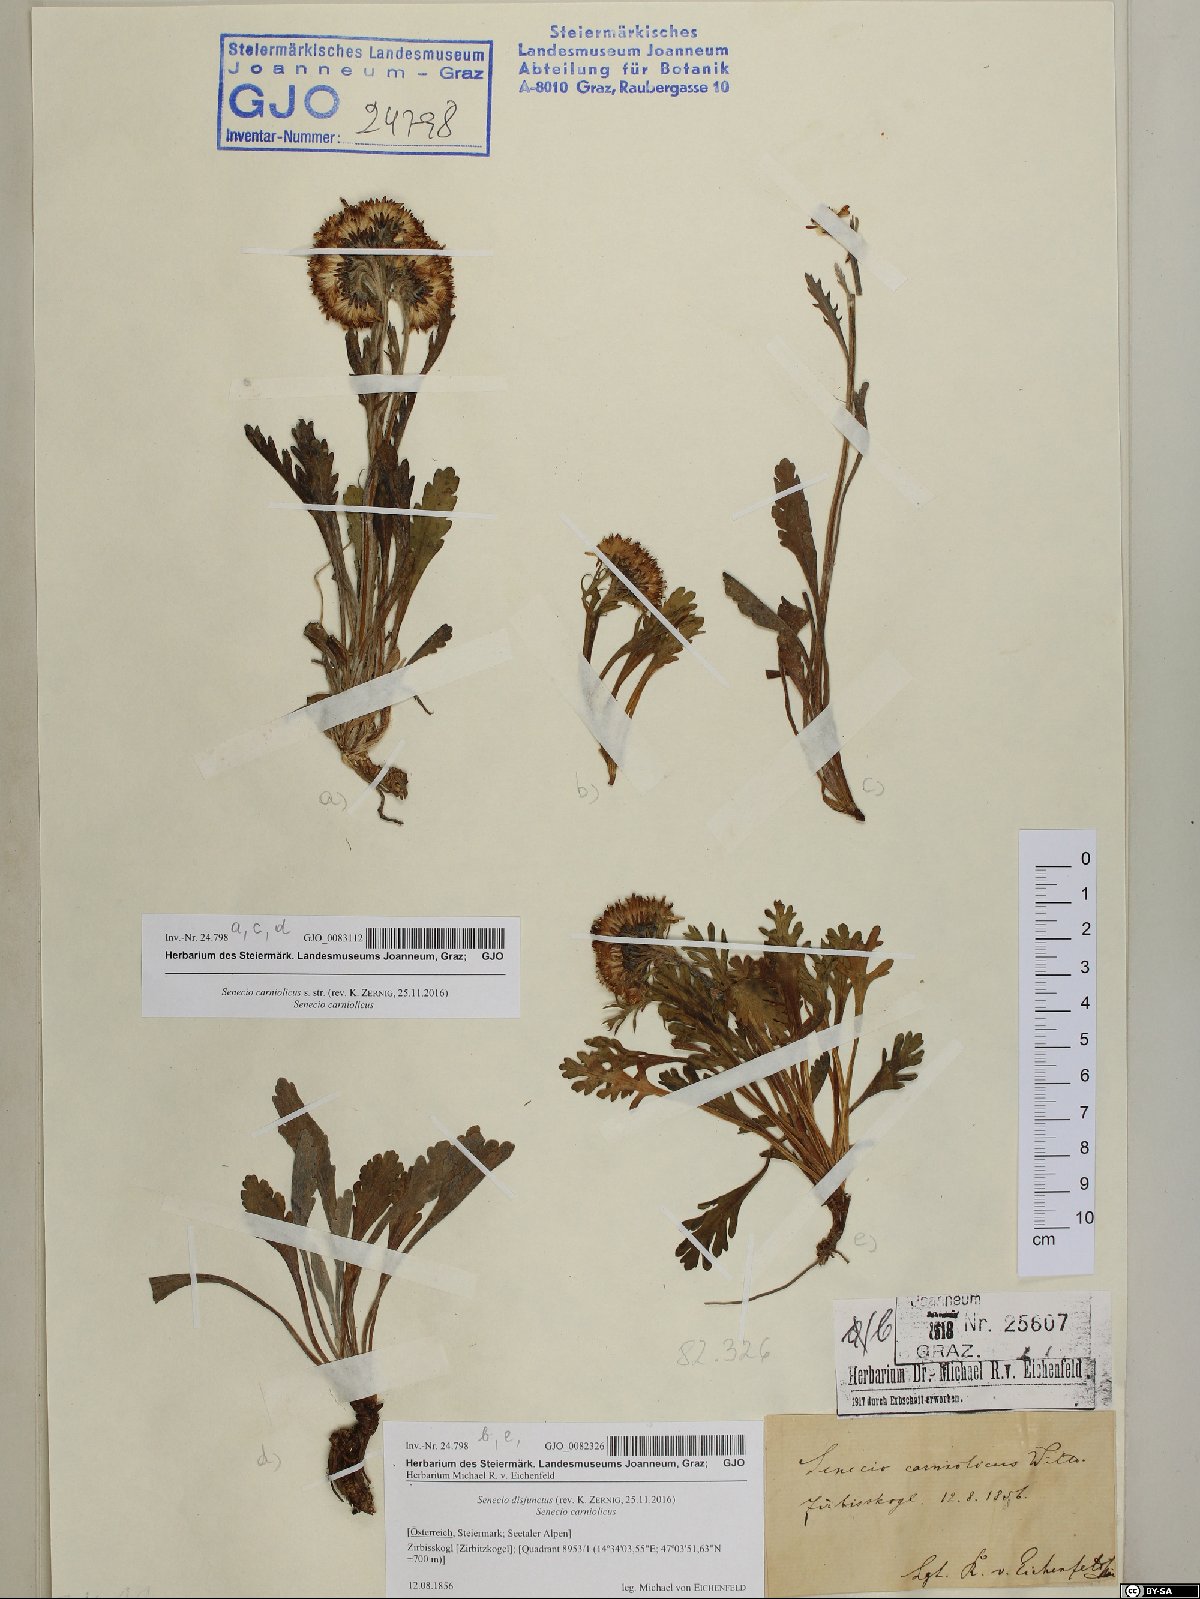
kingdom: Plantae
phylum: Tracheophyta
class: Magnoliopsida
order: Asterales
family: Asteraceae
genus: Jacobaea
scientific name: Jacobaea disjuncta
